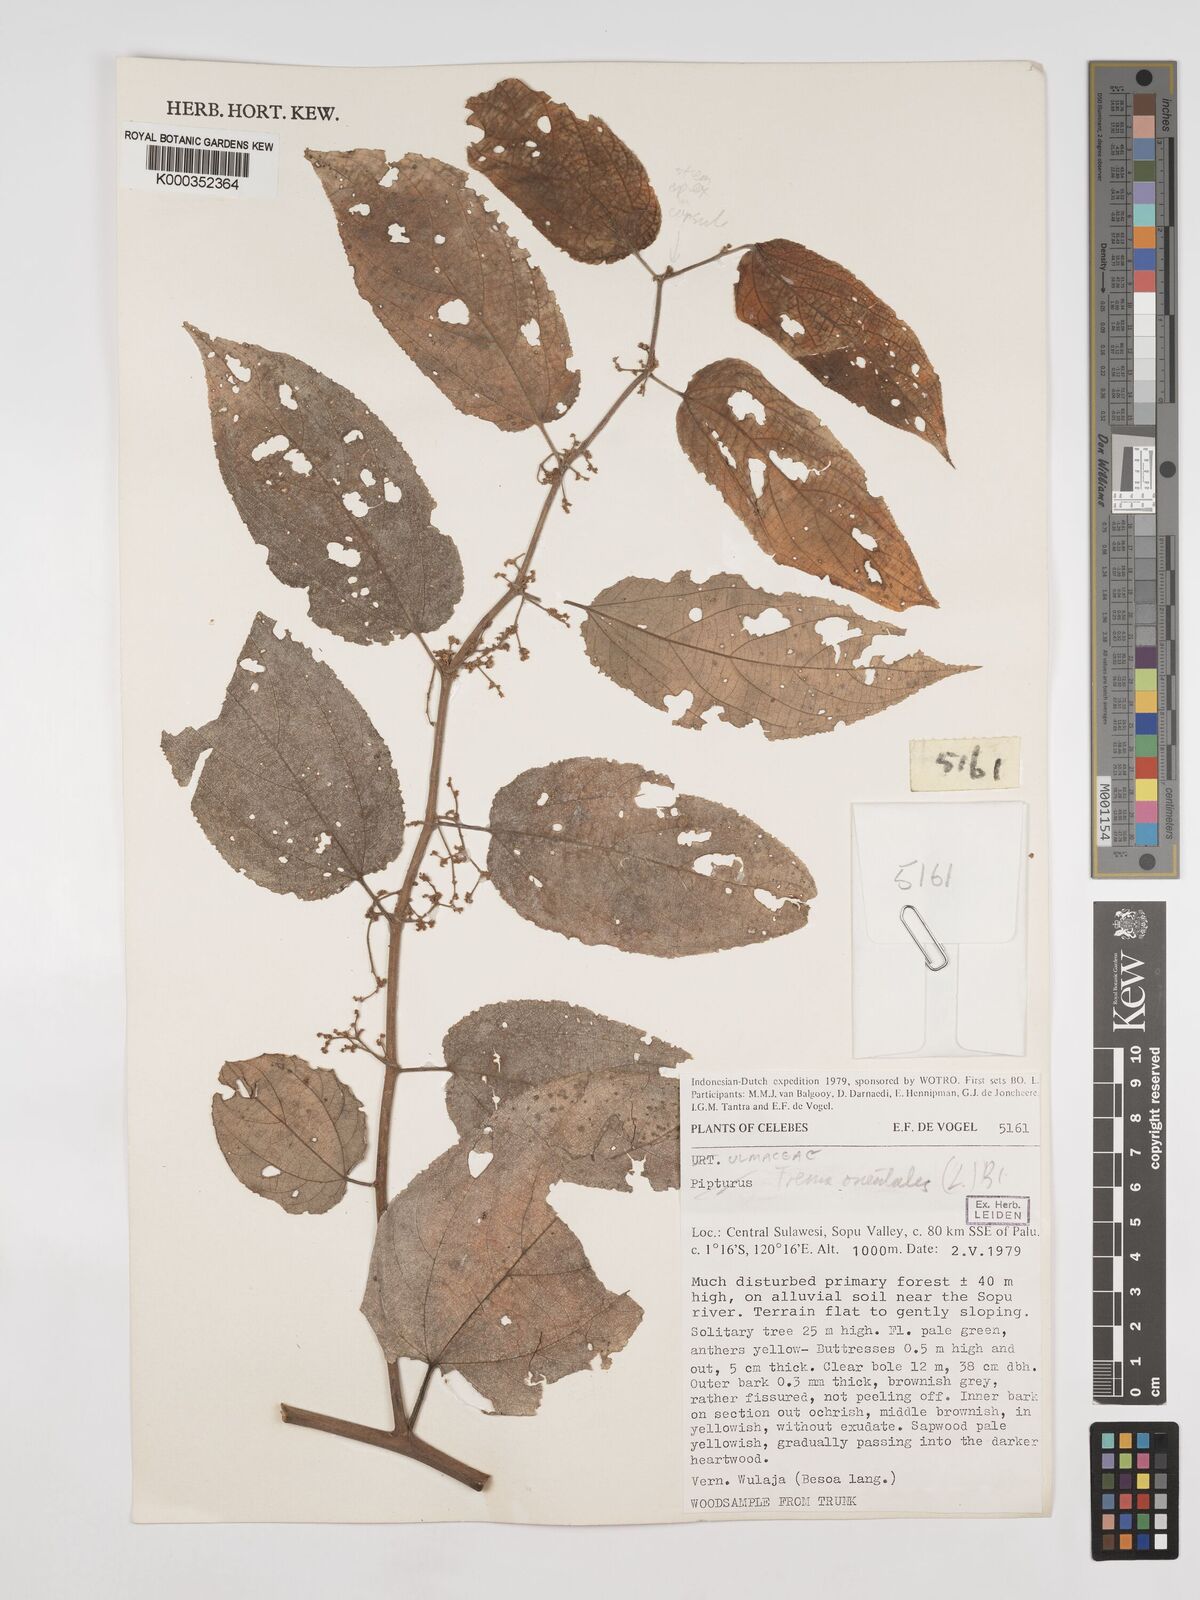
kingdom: Plantae
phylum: Tracheophyta
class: Magnoliopsida
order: Rosales
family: Cannabaceae
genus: Trema
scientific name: Trema
